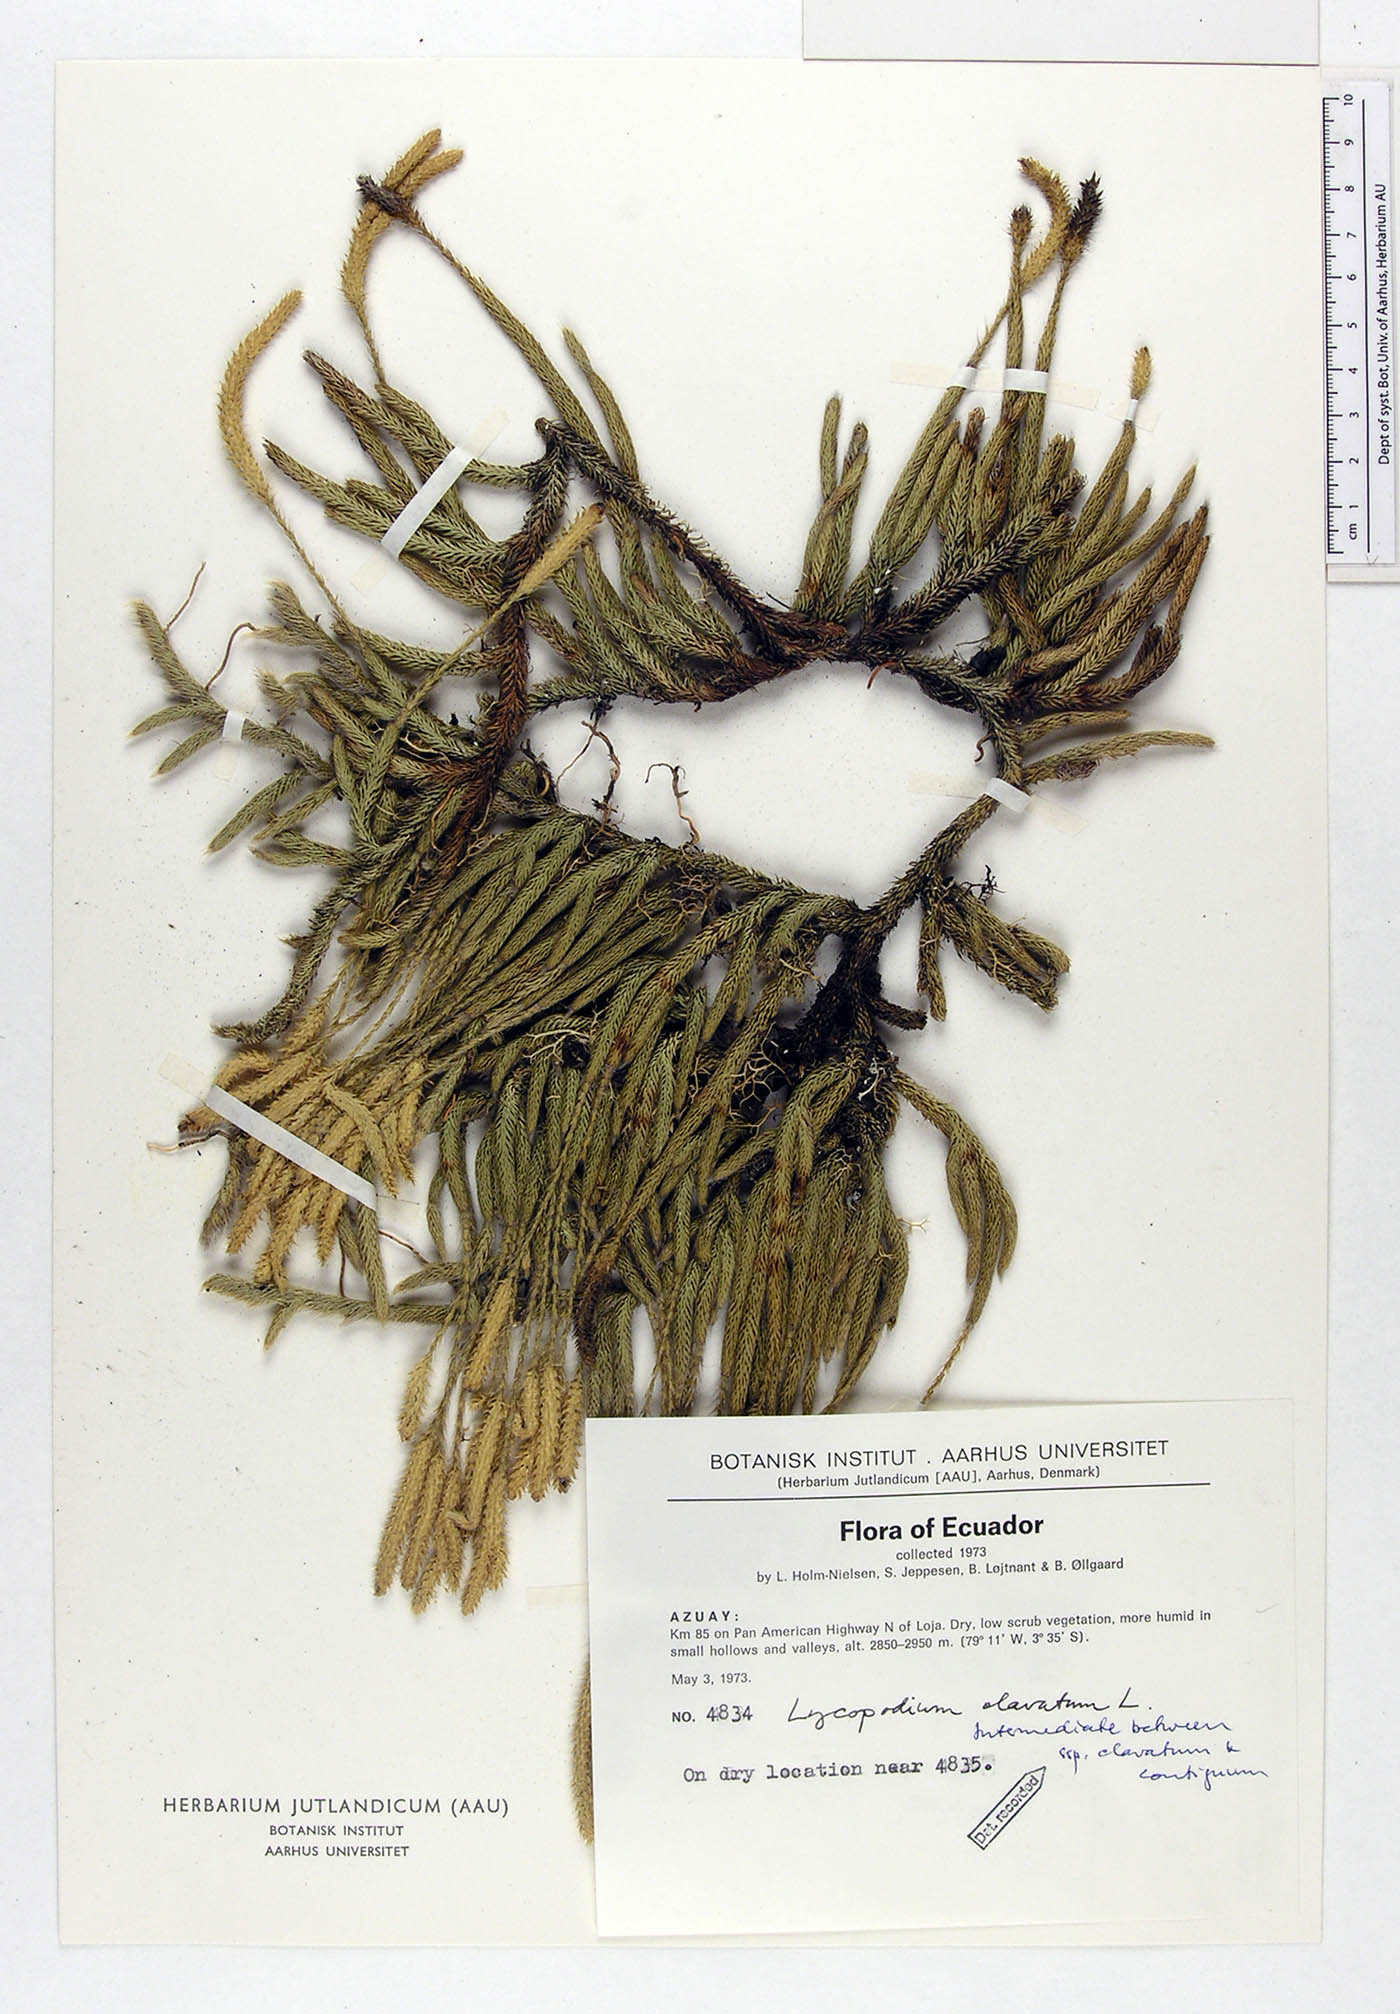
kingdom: Plantae
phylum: Tracheophyta
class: Lycopodiopsida
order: Lycopodiales
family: Lycopodiaceae
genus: Lycopodium
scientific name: Lycopodium clavatum
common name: Stag's-horn clubmoss
